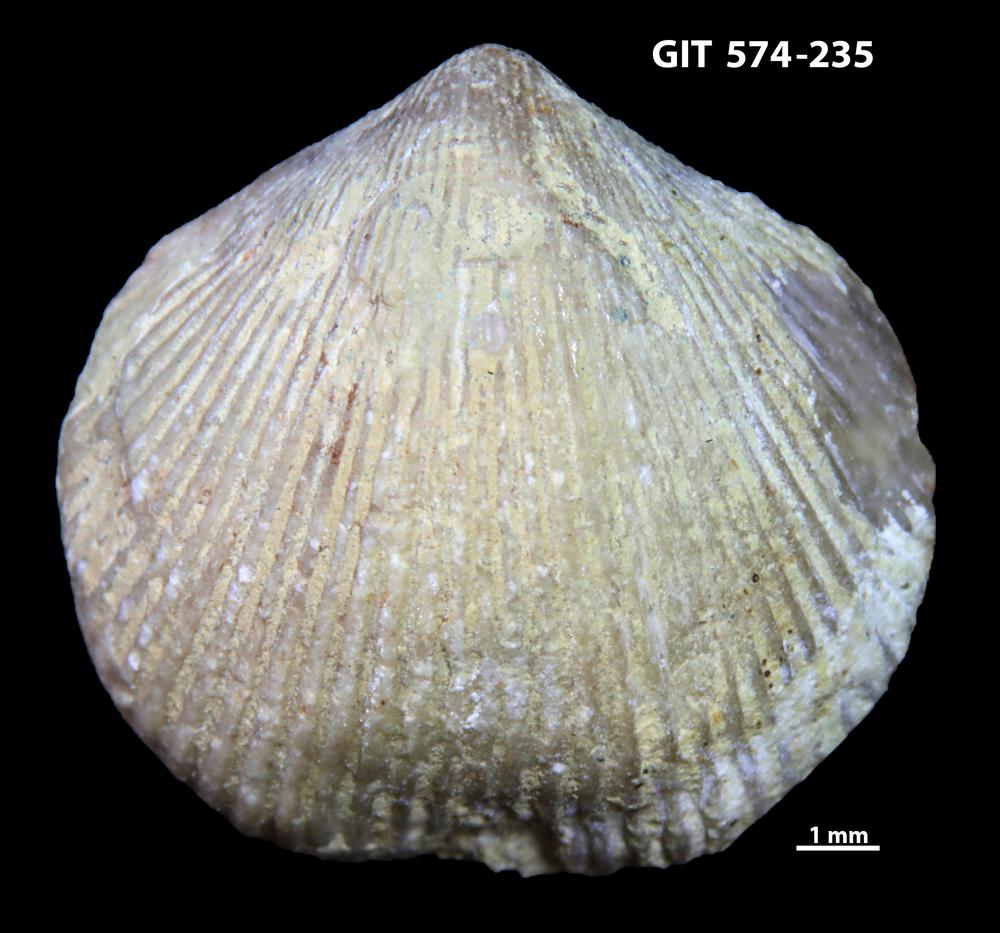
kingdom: Animalia
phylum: Brachiopoda
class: Rhynchonellata
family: Atrypinidae
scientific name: Atrypinidae
